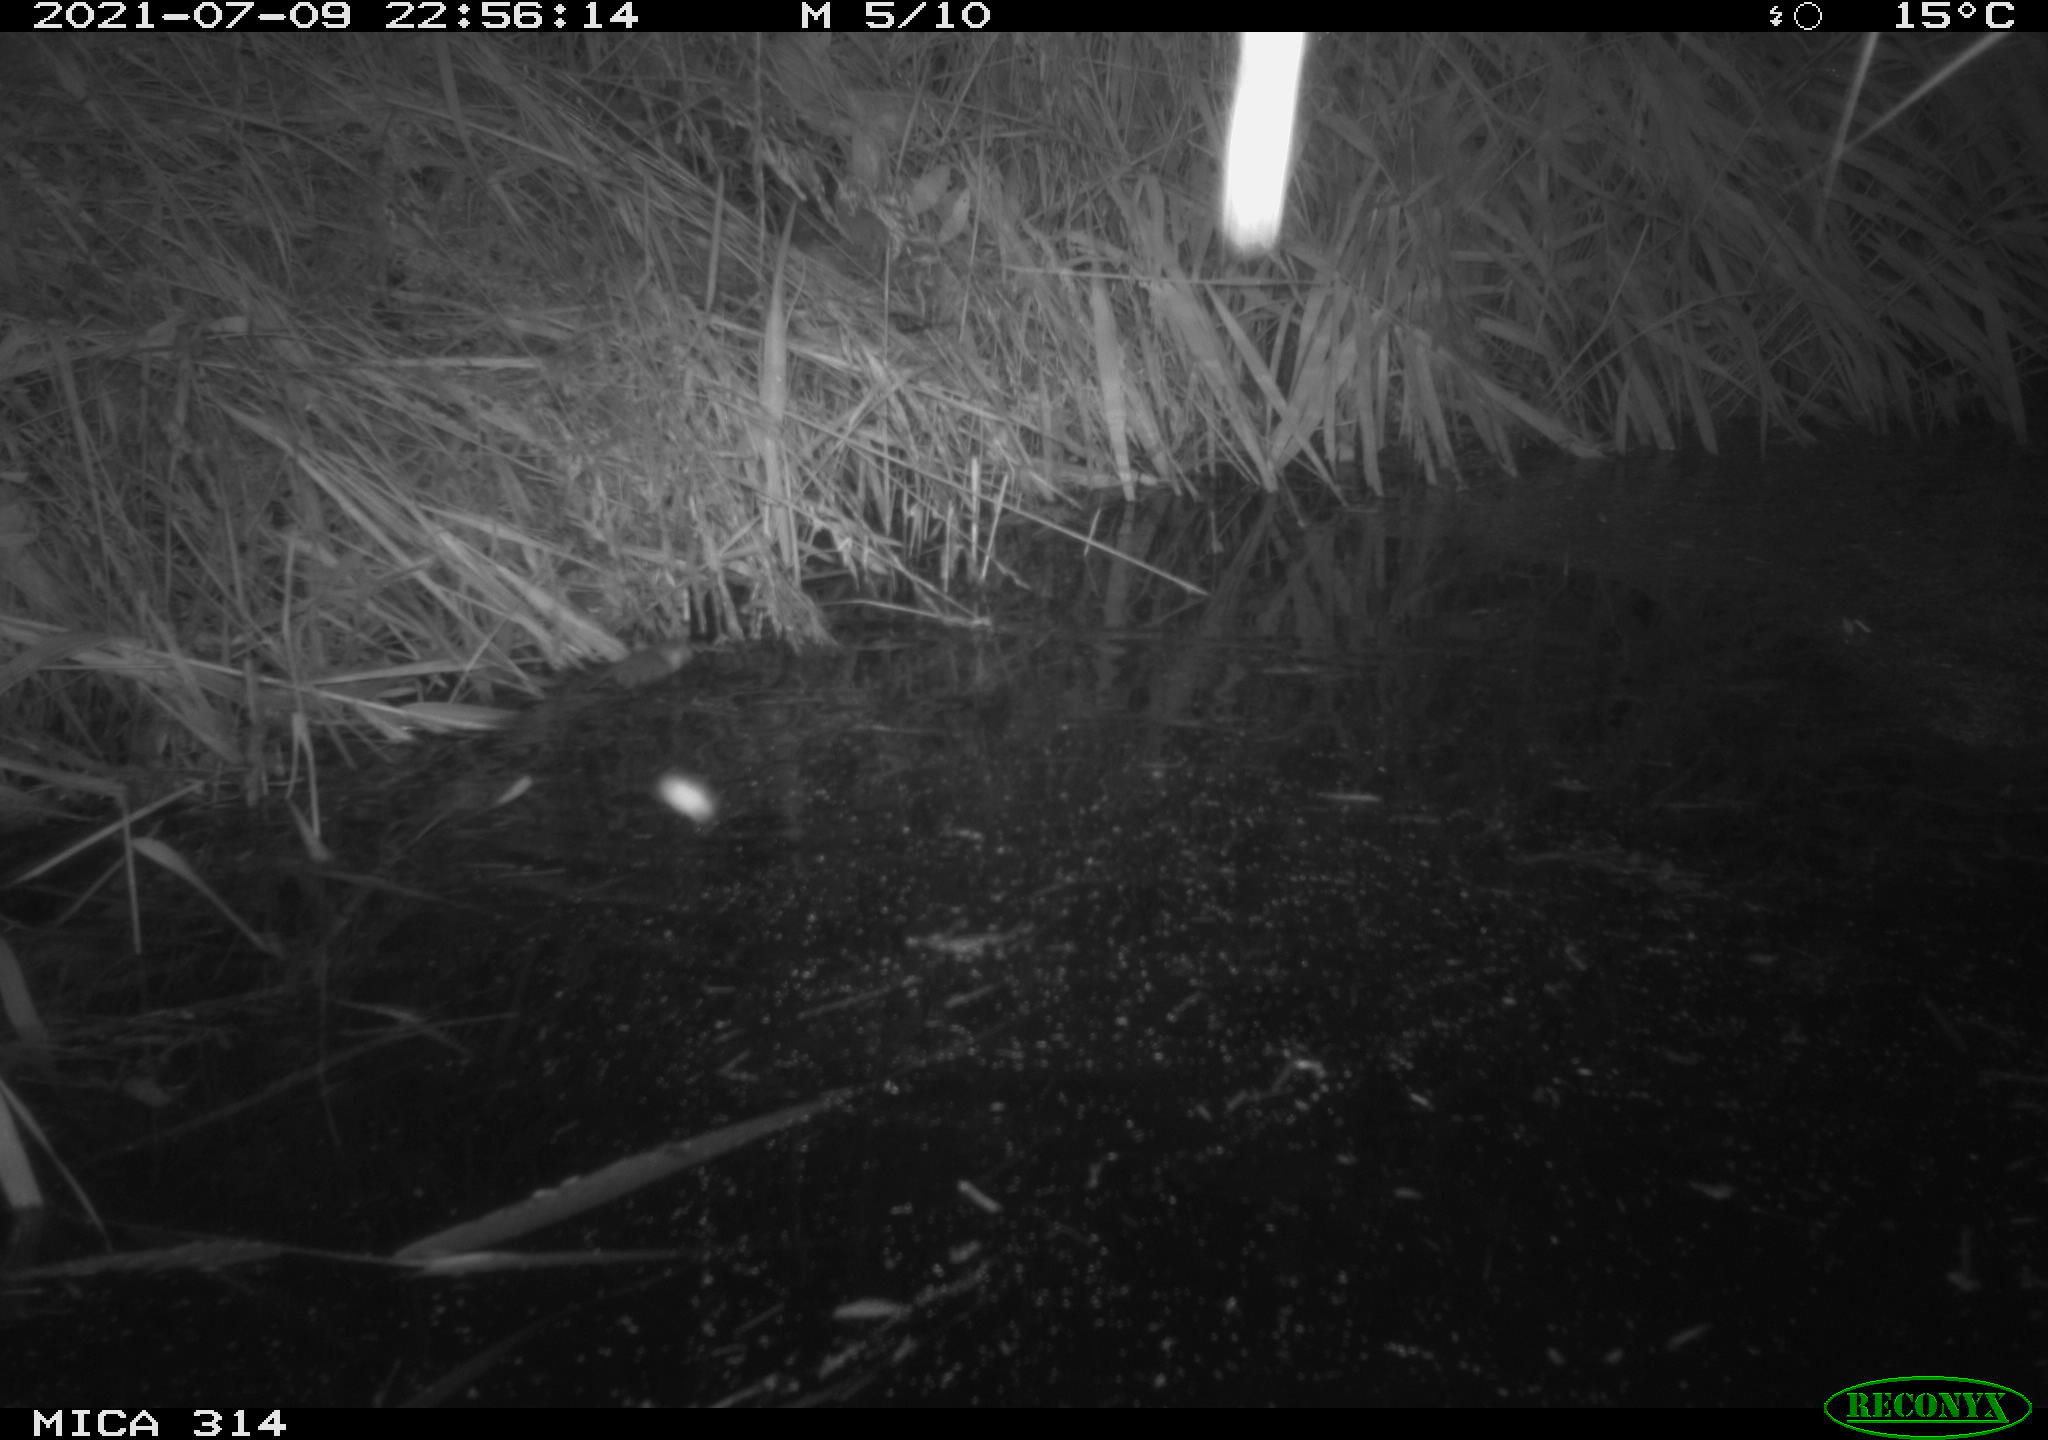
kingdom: Animalia
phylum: Chordata
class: Mammalia
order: Rodentia
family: Muridae
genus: Rattus
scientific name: Rattus norvegicus
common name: Brown rat
